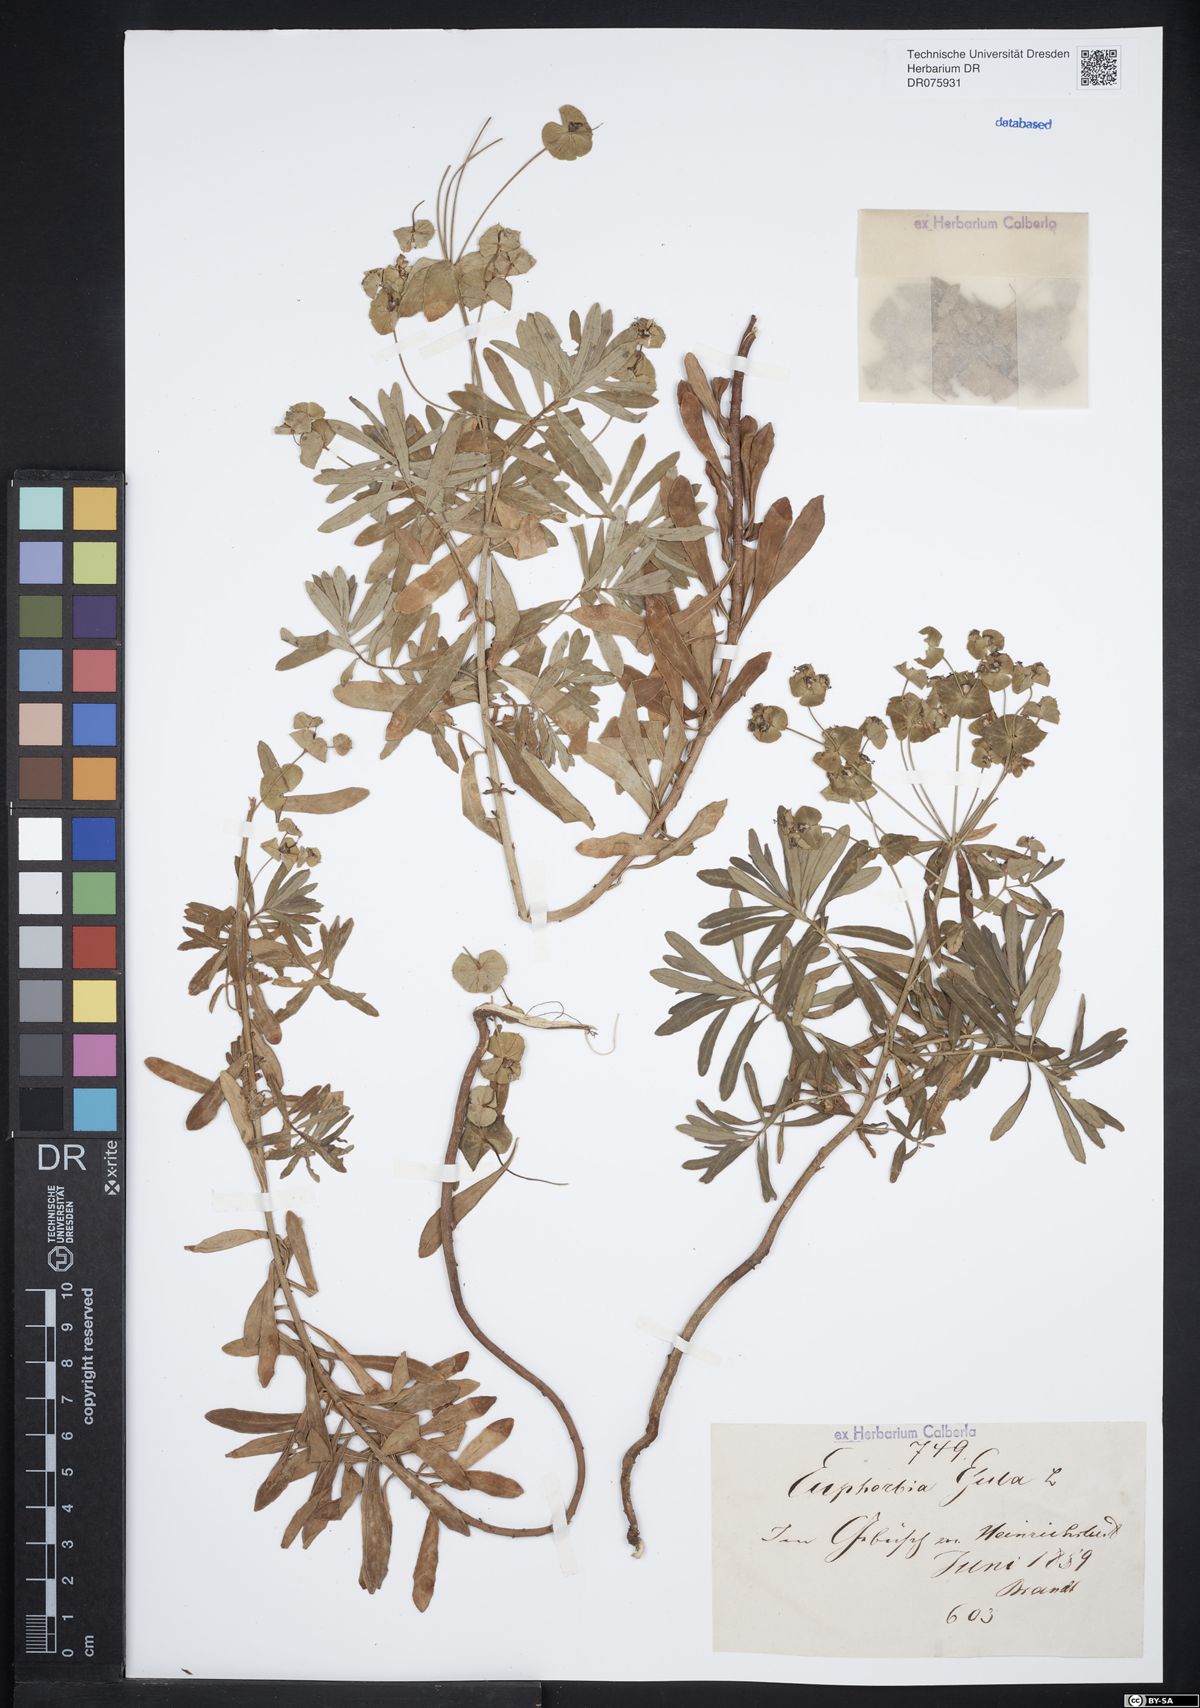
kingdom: Plantae
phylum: Tracheophyta
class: Magnoliopsida
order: Malpighiales
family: Euphorbiaceae
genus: Euphorbia
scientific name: Euphorbia esula
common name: Leafy spurge
